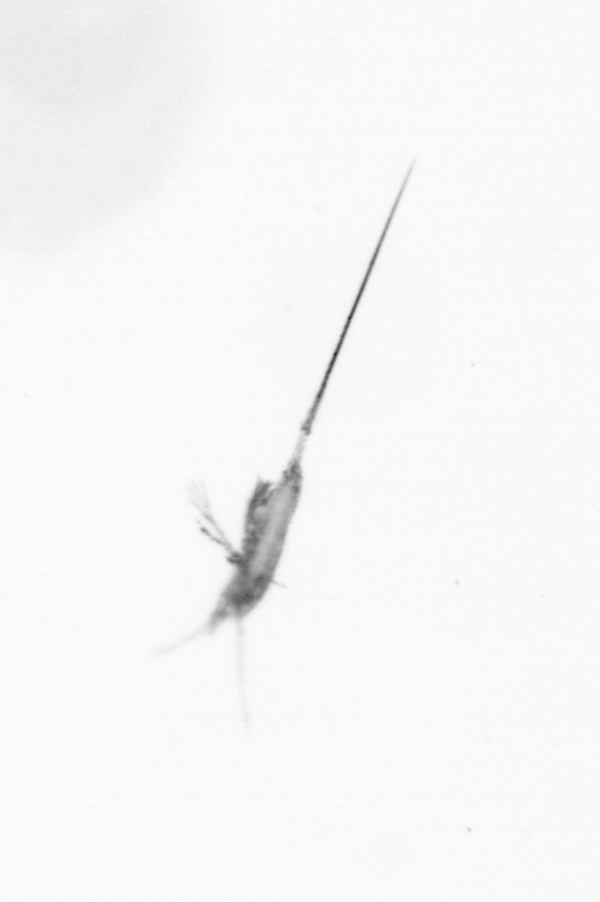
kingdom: Animalia
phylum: Arthropoda
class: Copepoda
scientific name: Copepoda
